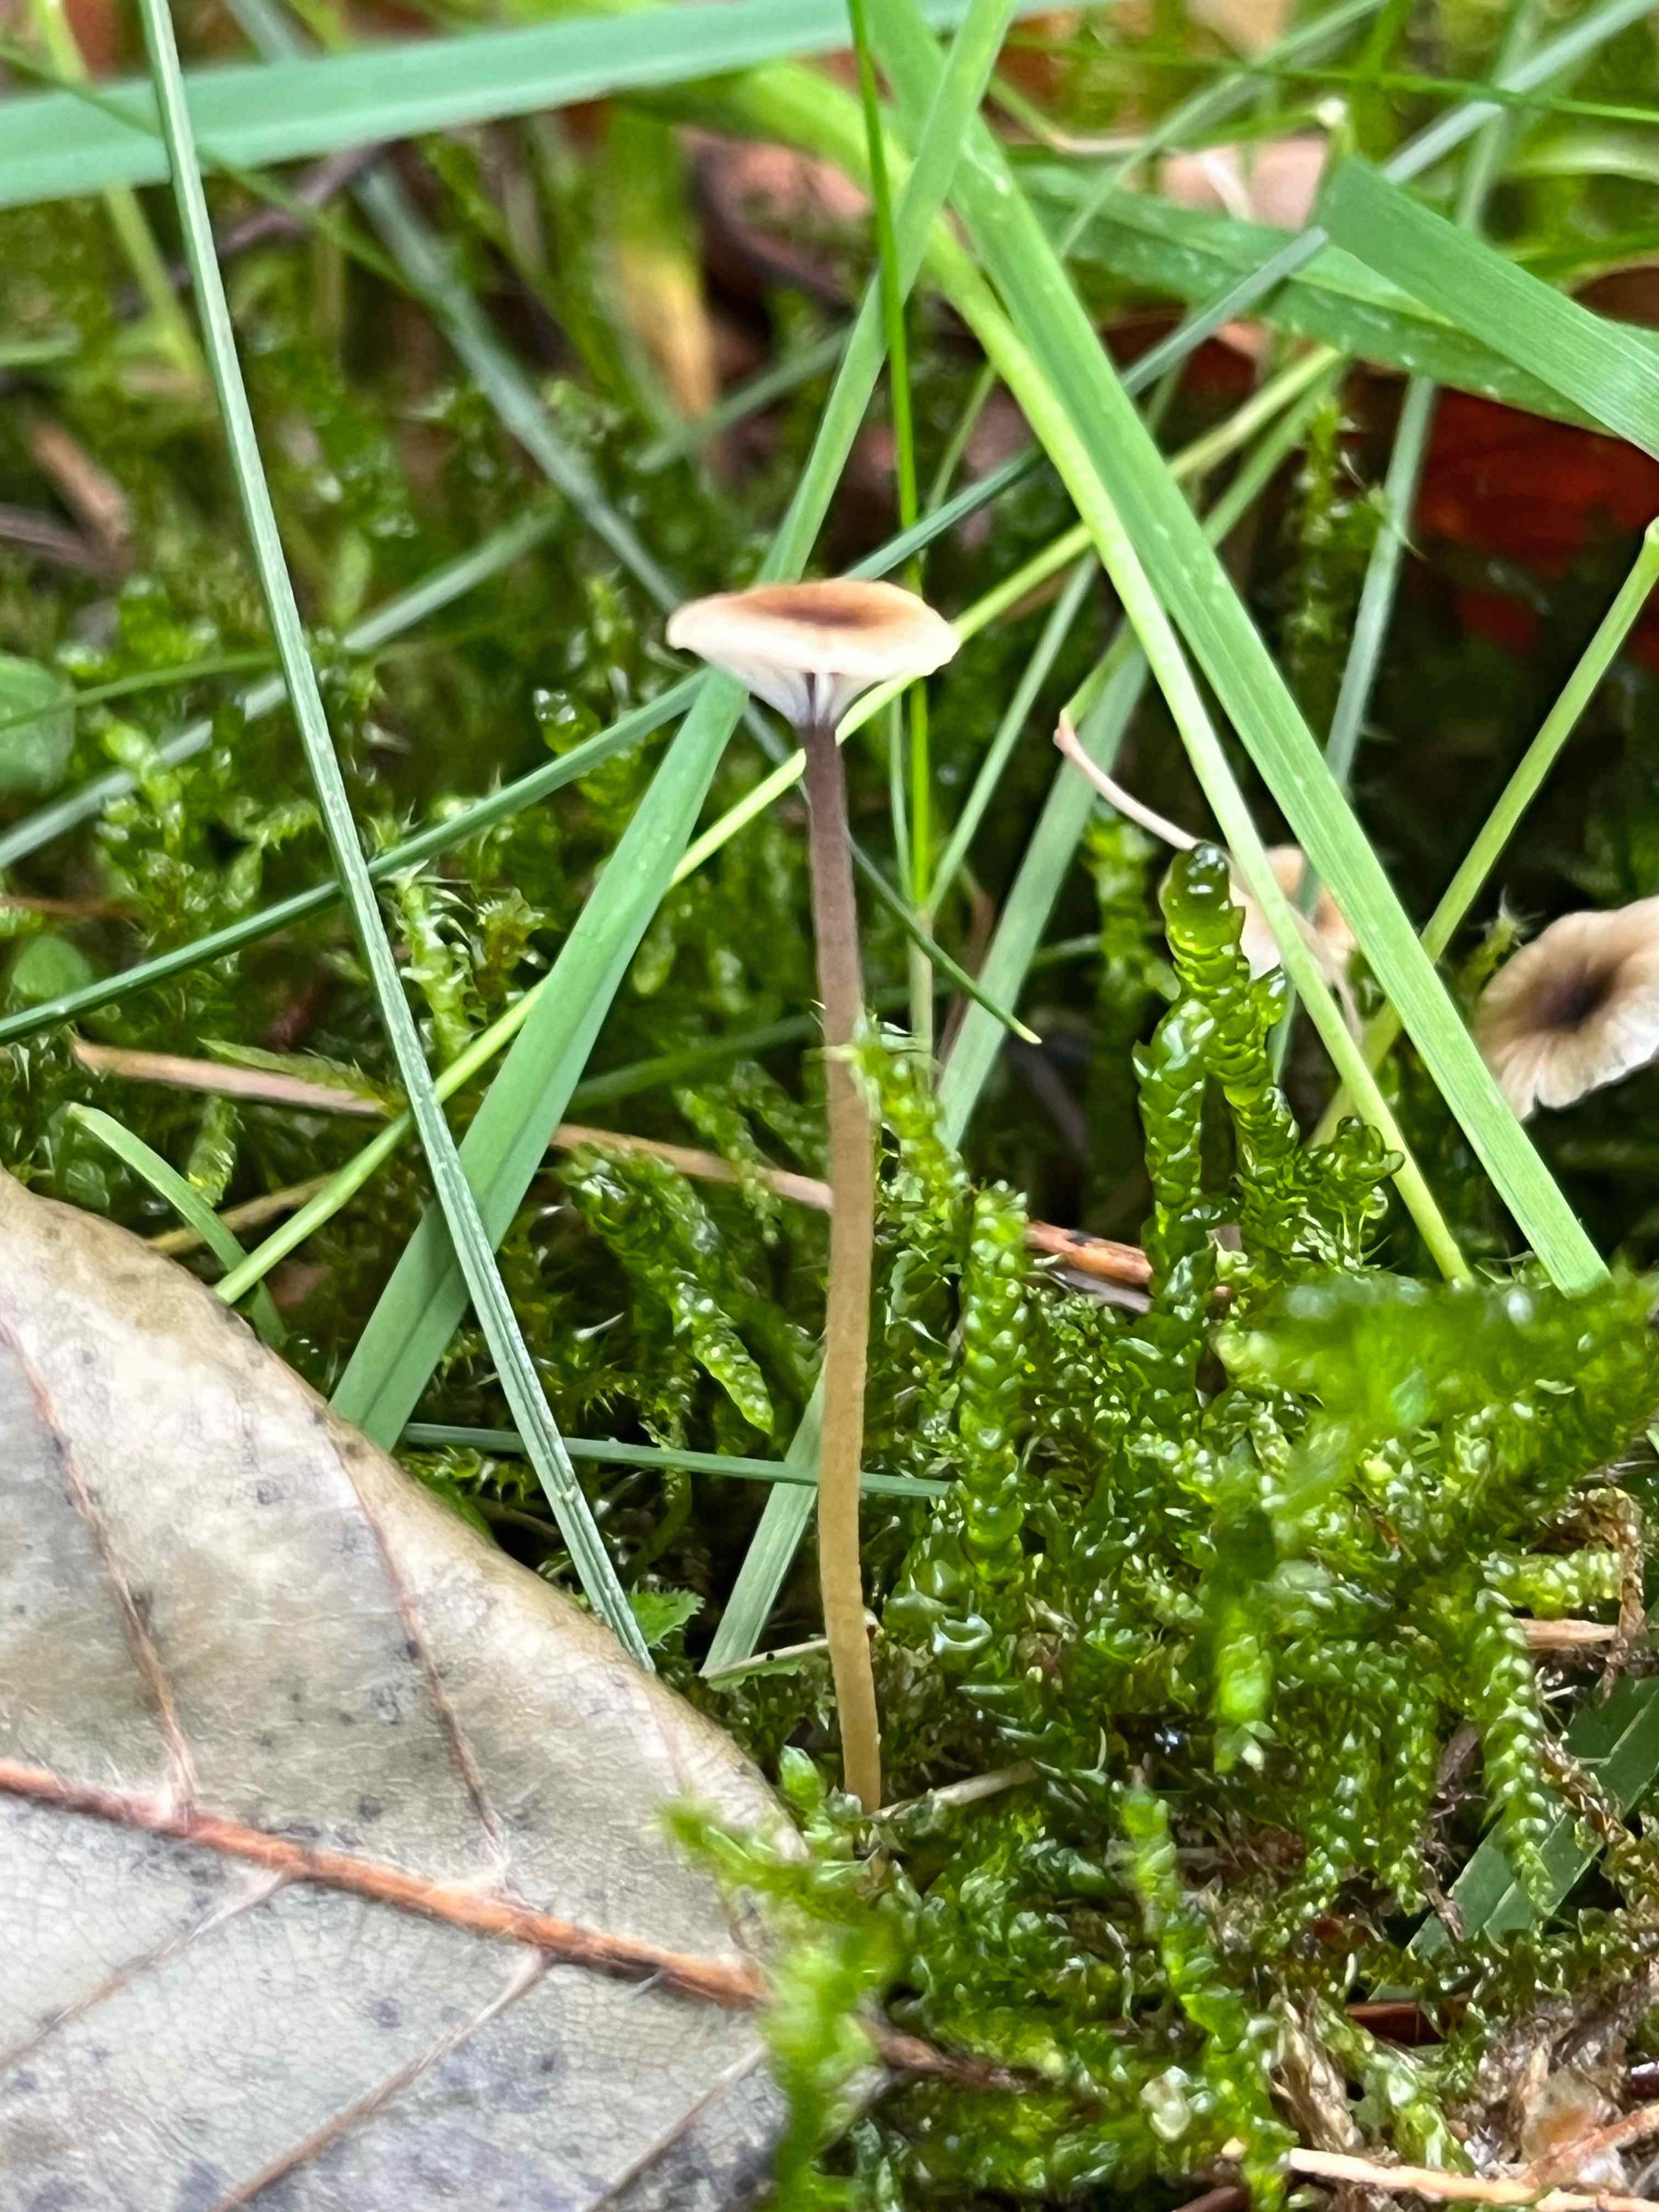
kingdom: Fungi
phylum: Basidiomycota
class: Agaricomycetes
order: Hymenochaetales
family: Rickenellaceae
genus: Rickenella
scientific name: Rickenella swartzii
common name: finstokket mosnavlehat
